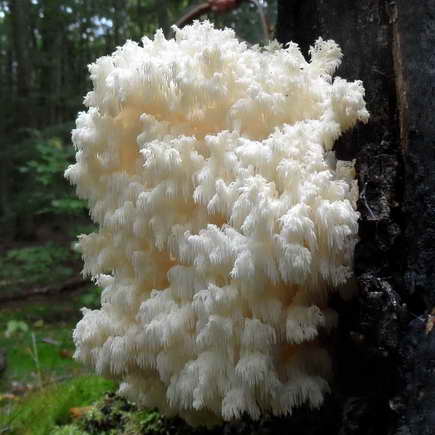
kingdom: Fungi
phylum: Basidiomycota
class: Agaricomycetes
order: Russulales
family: Hericiaceae
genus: Hericium
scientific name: Hericium coralloides
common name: koralpigsvamp
